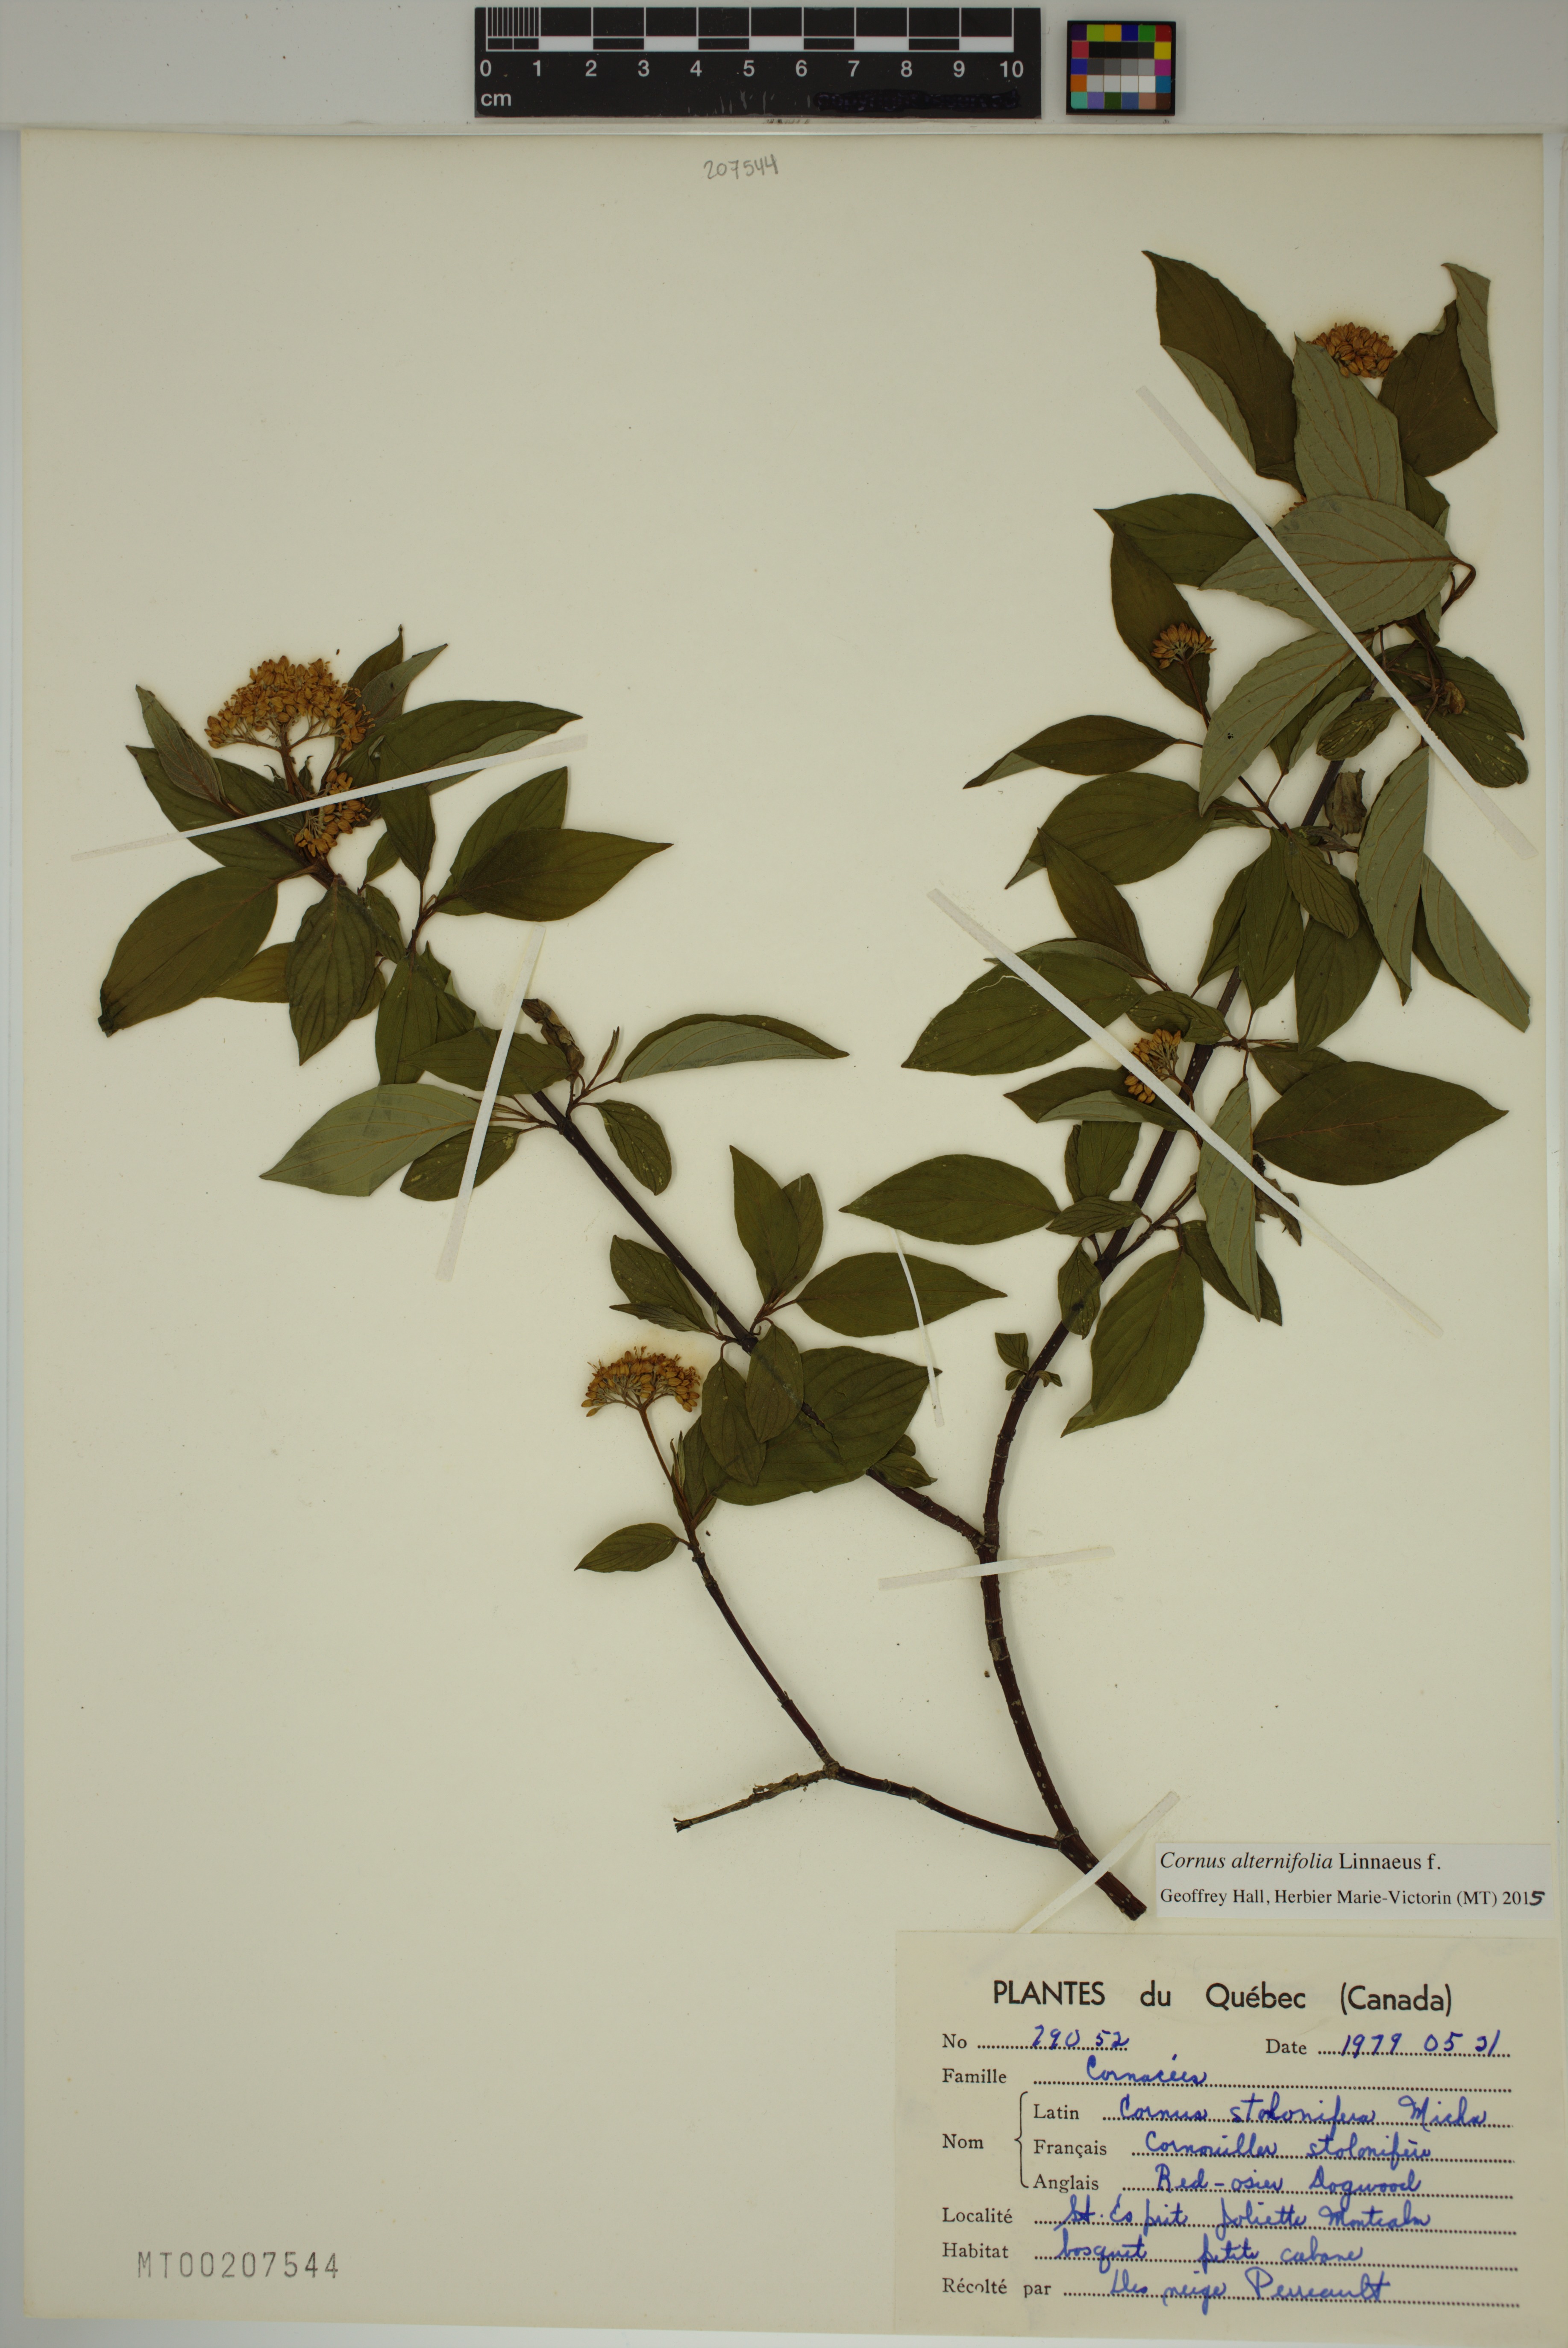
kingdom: Plantae
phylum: Tracheophyta
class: Magnoliopsida
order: Cornales
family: Cornaceae
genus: Cornus
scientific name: Cornus alternifolia
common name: Pagoda dogwood
